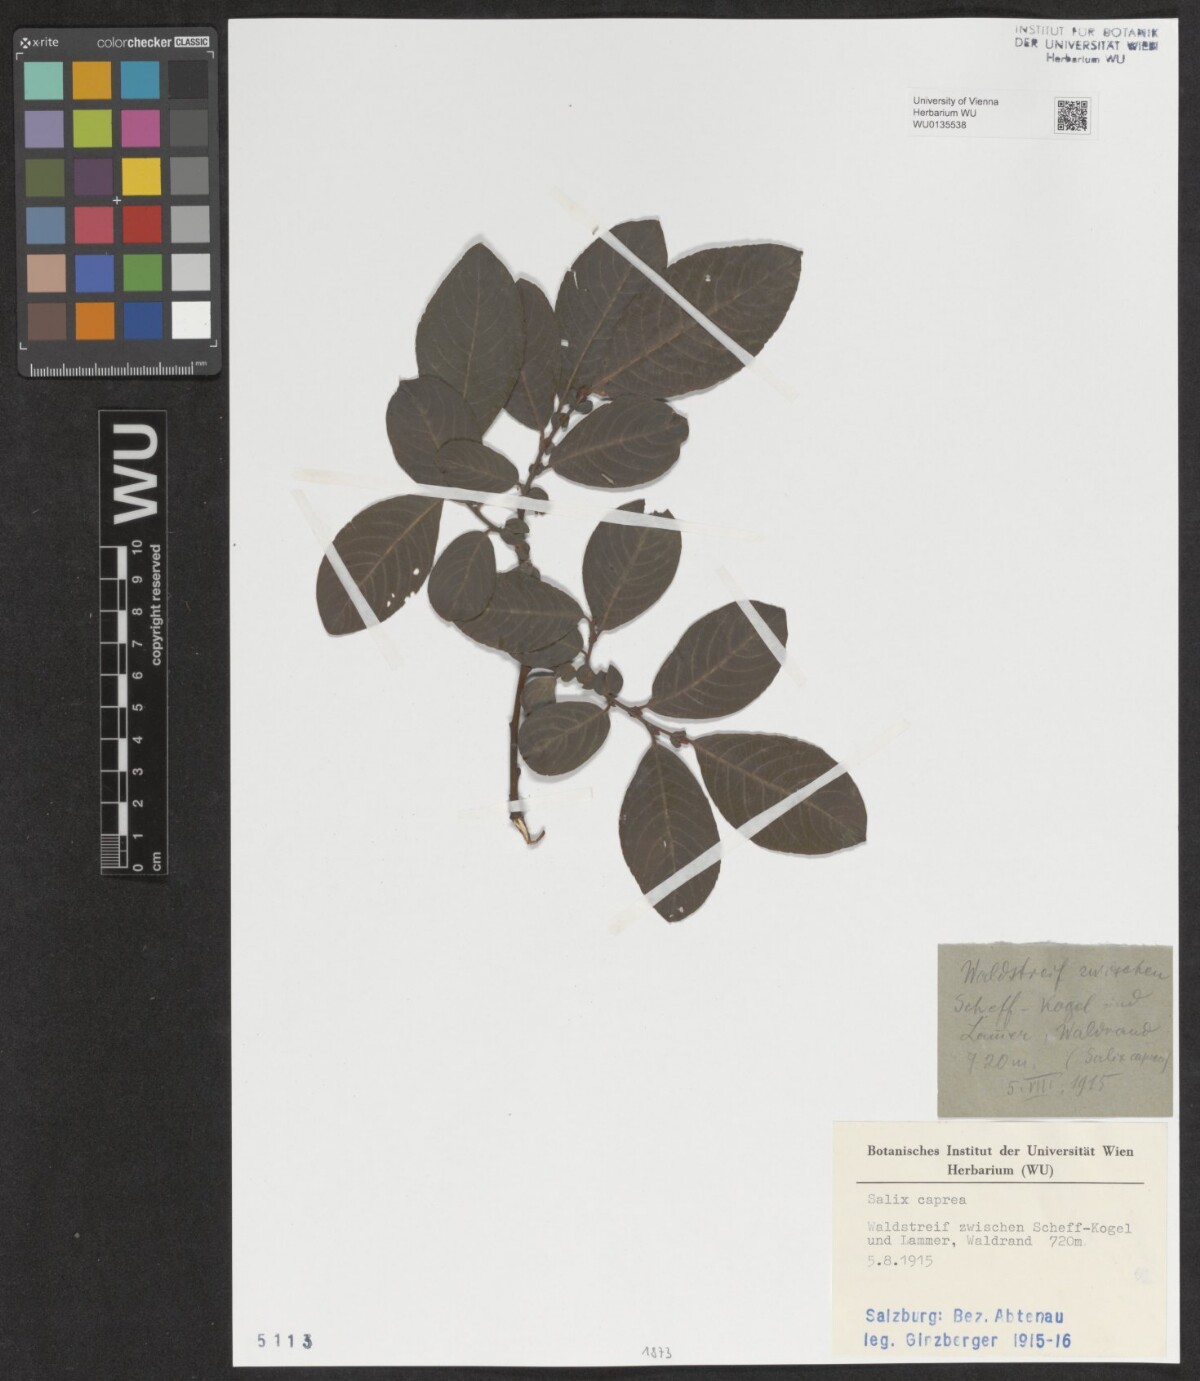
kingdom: Plantae
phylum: Tracheophyta
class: Magnoliopsida
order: Malpighiales
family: Salicaceae
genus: Salix
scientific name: Salix caprea
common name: Goat willow
